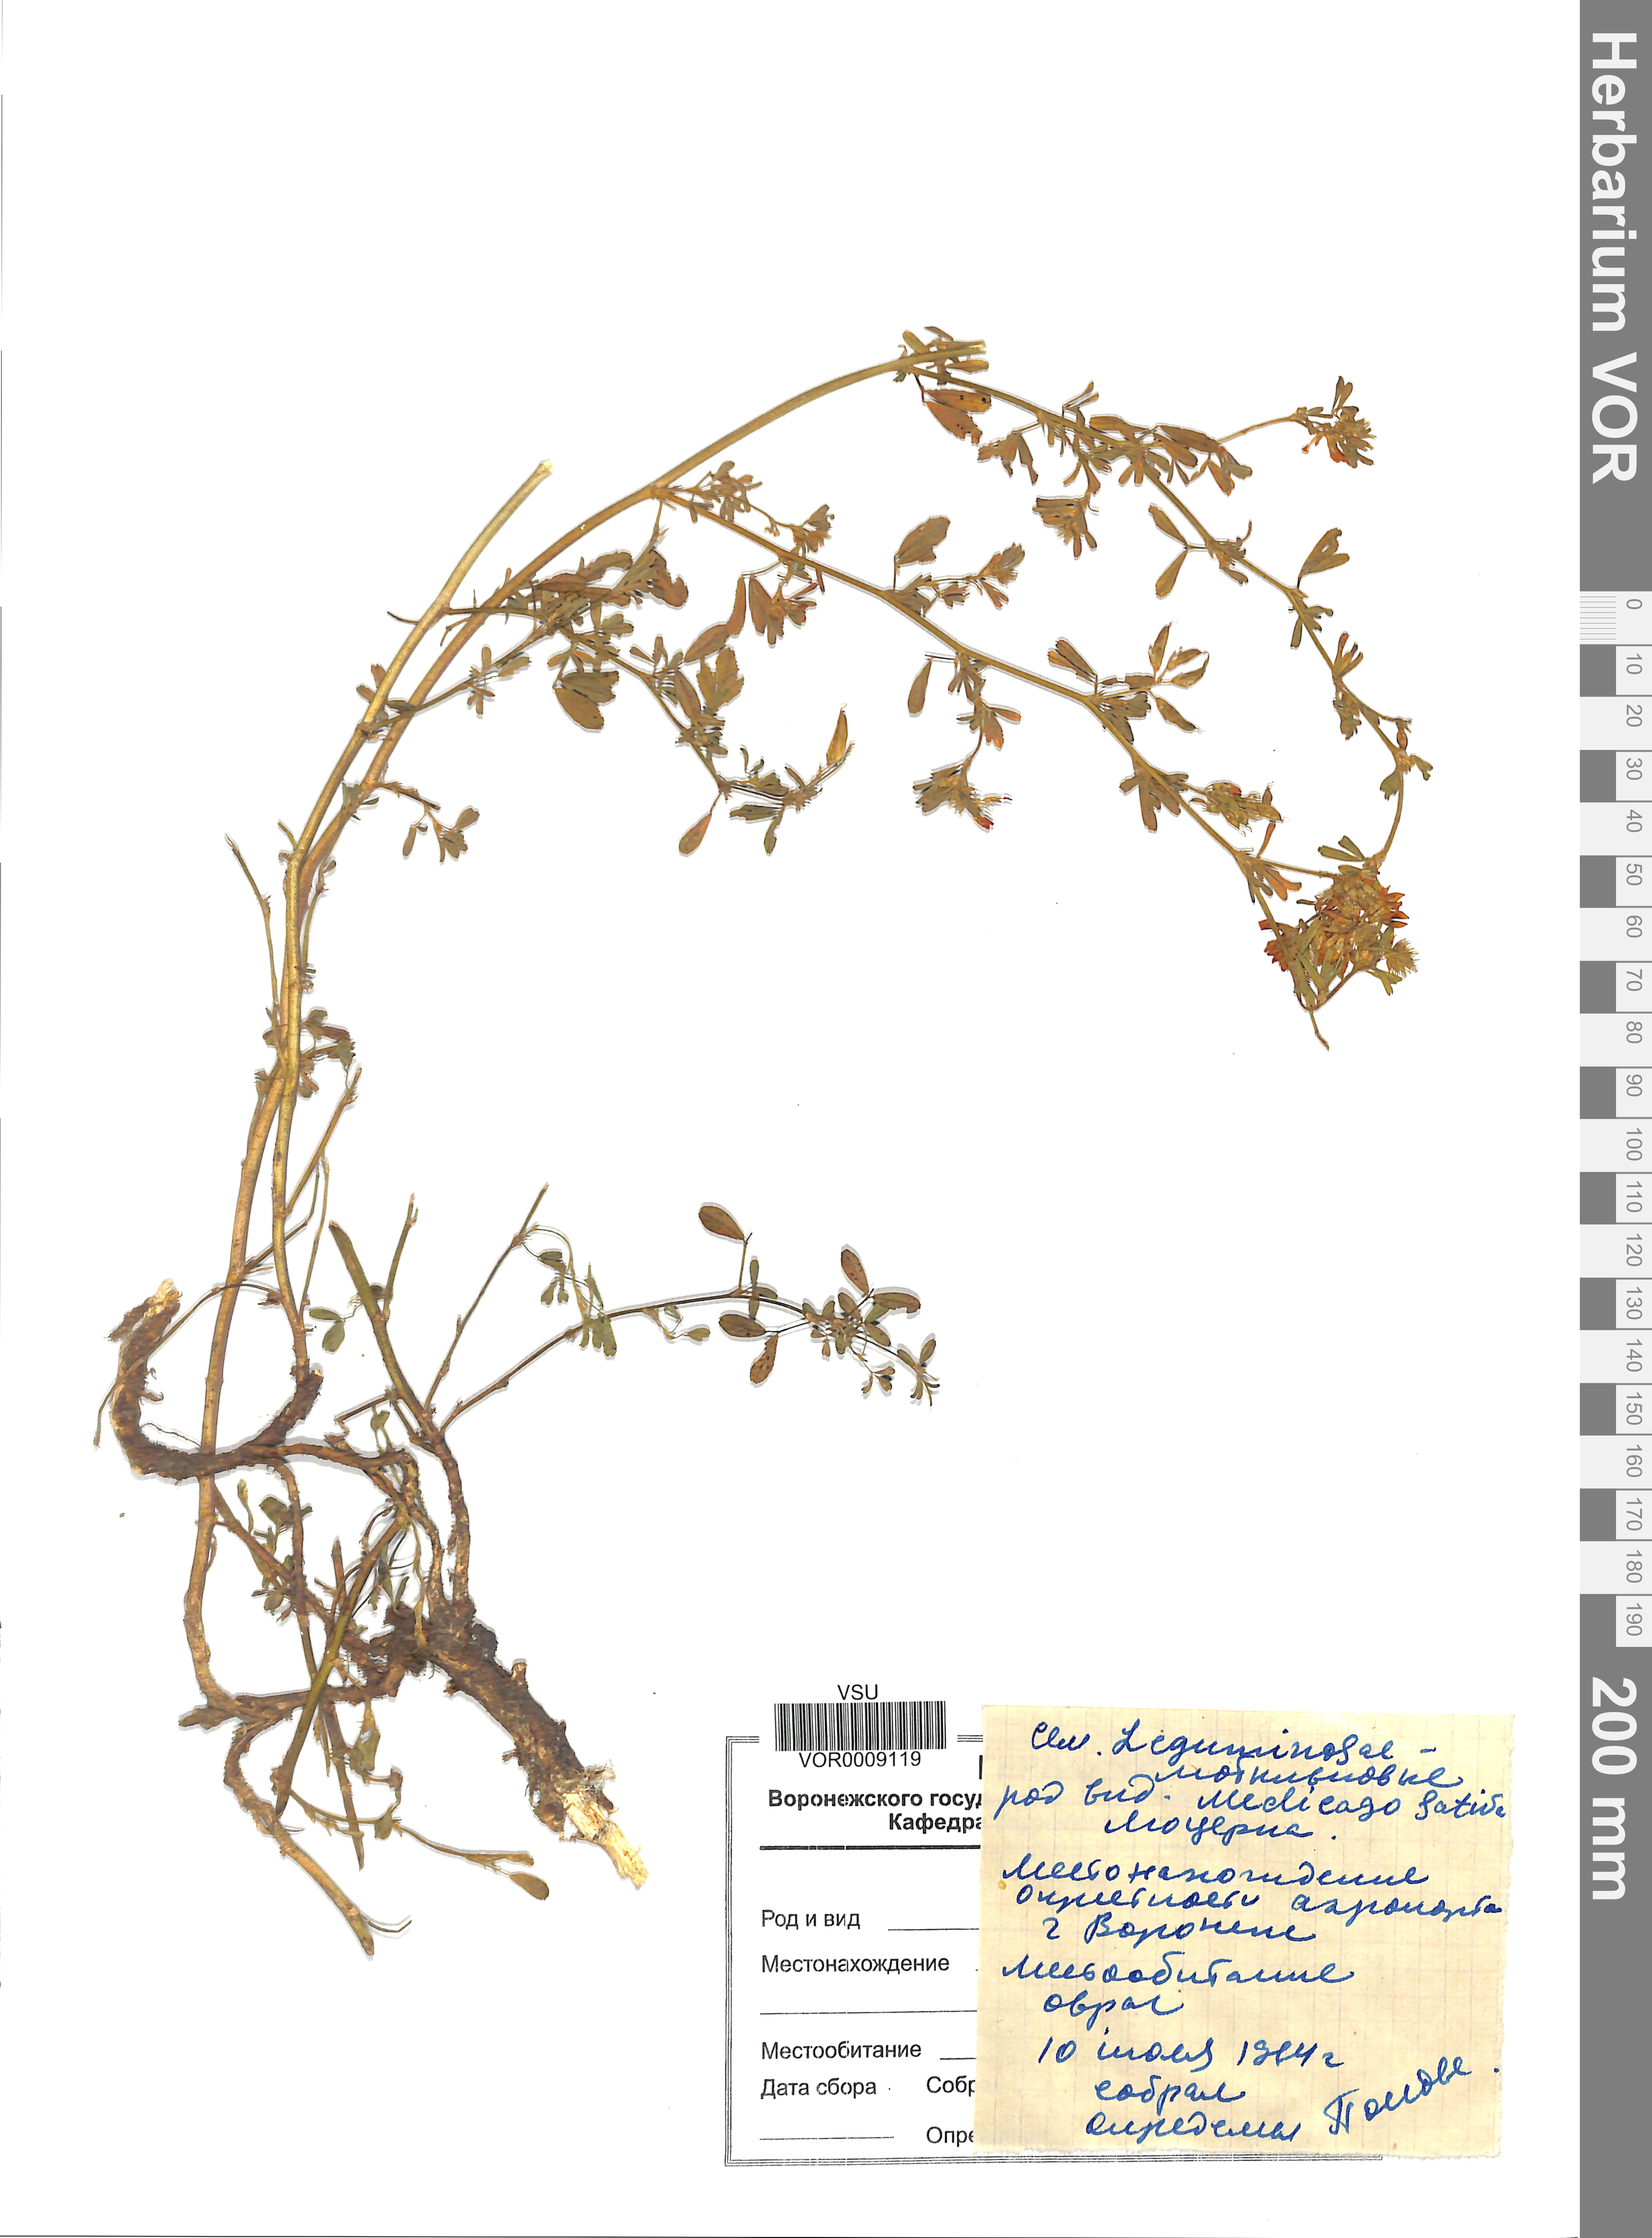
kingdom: Plantae
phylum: Tracheophyta
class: Magnoliopsida
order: Fabales
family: Fabaceae
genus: Medicago
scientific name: Medicago sativa
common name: Alfalfa
